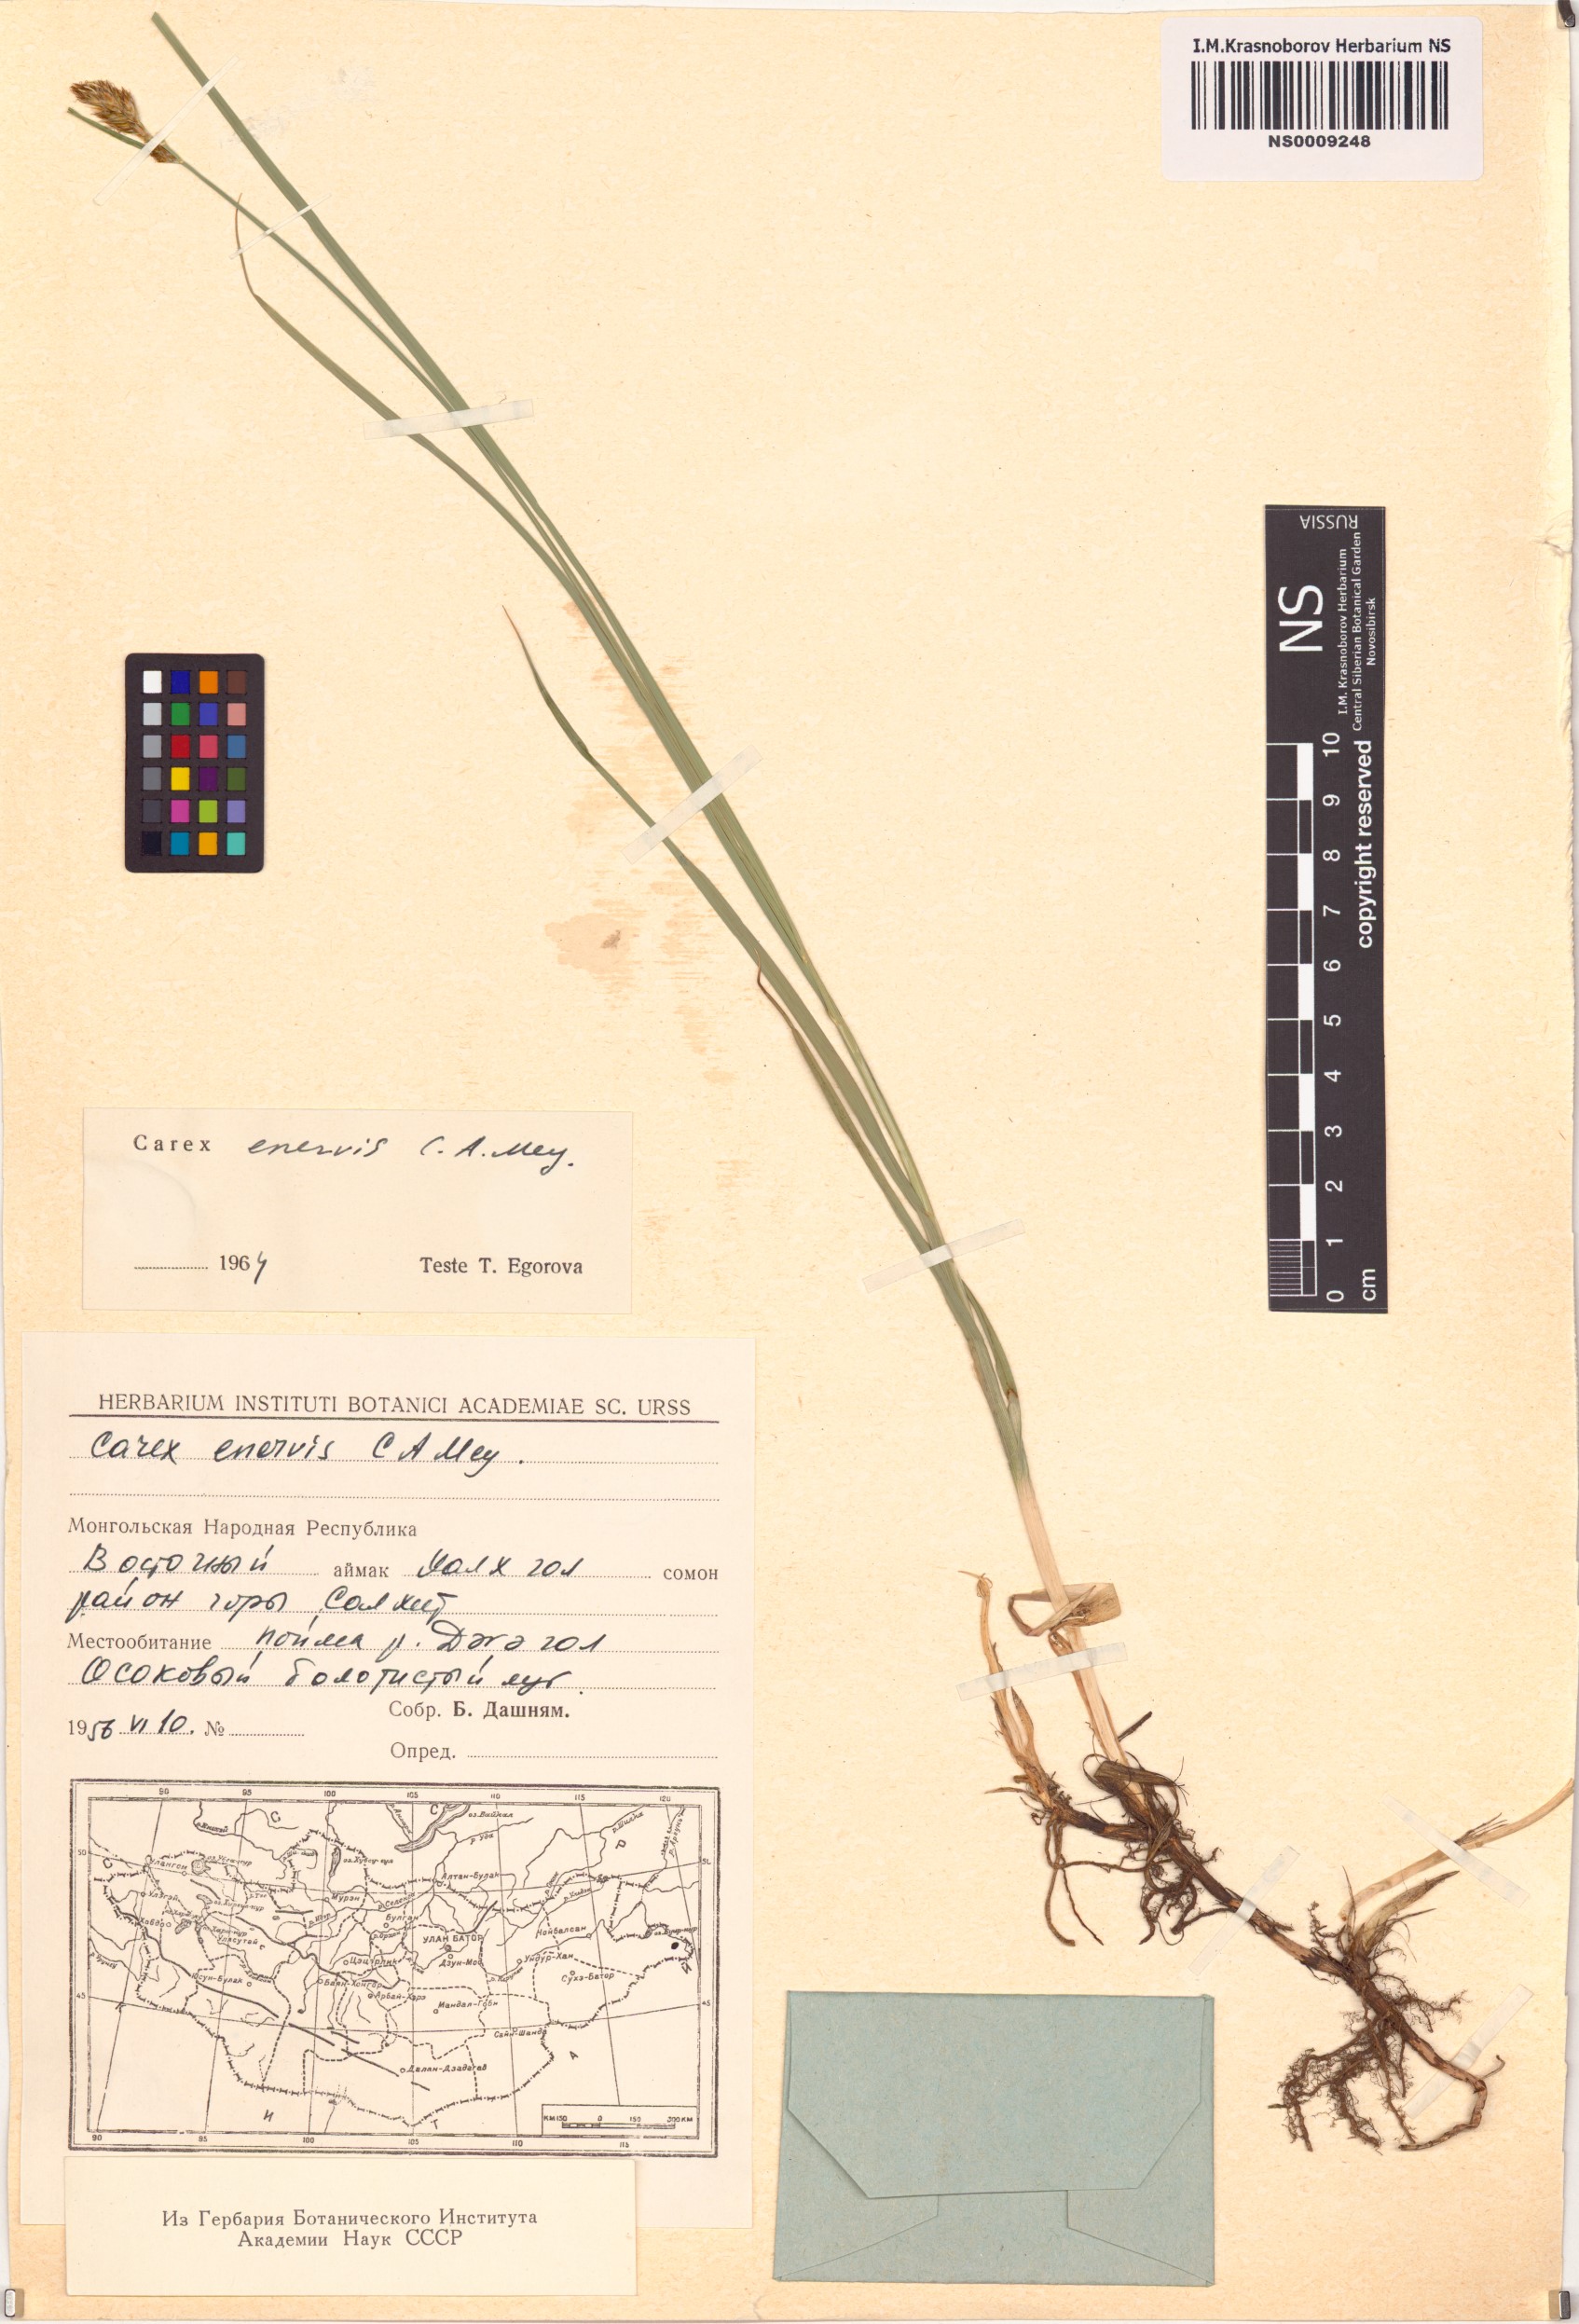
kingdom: Plantae
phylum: Tracheophyta
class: Liliopsida
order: Poales
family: Cyperaceae
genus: Carex
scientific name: Carex enervis
